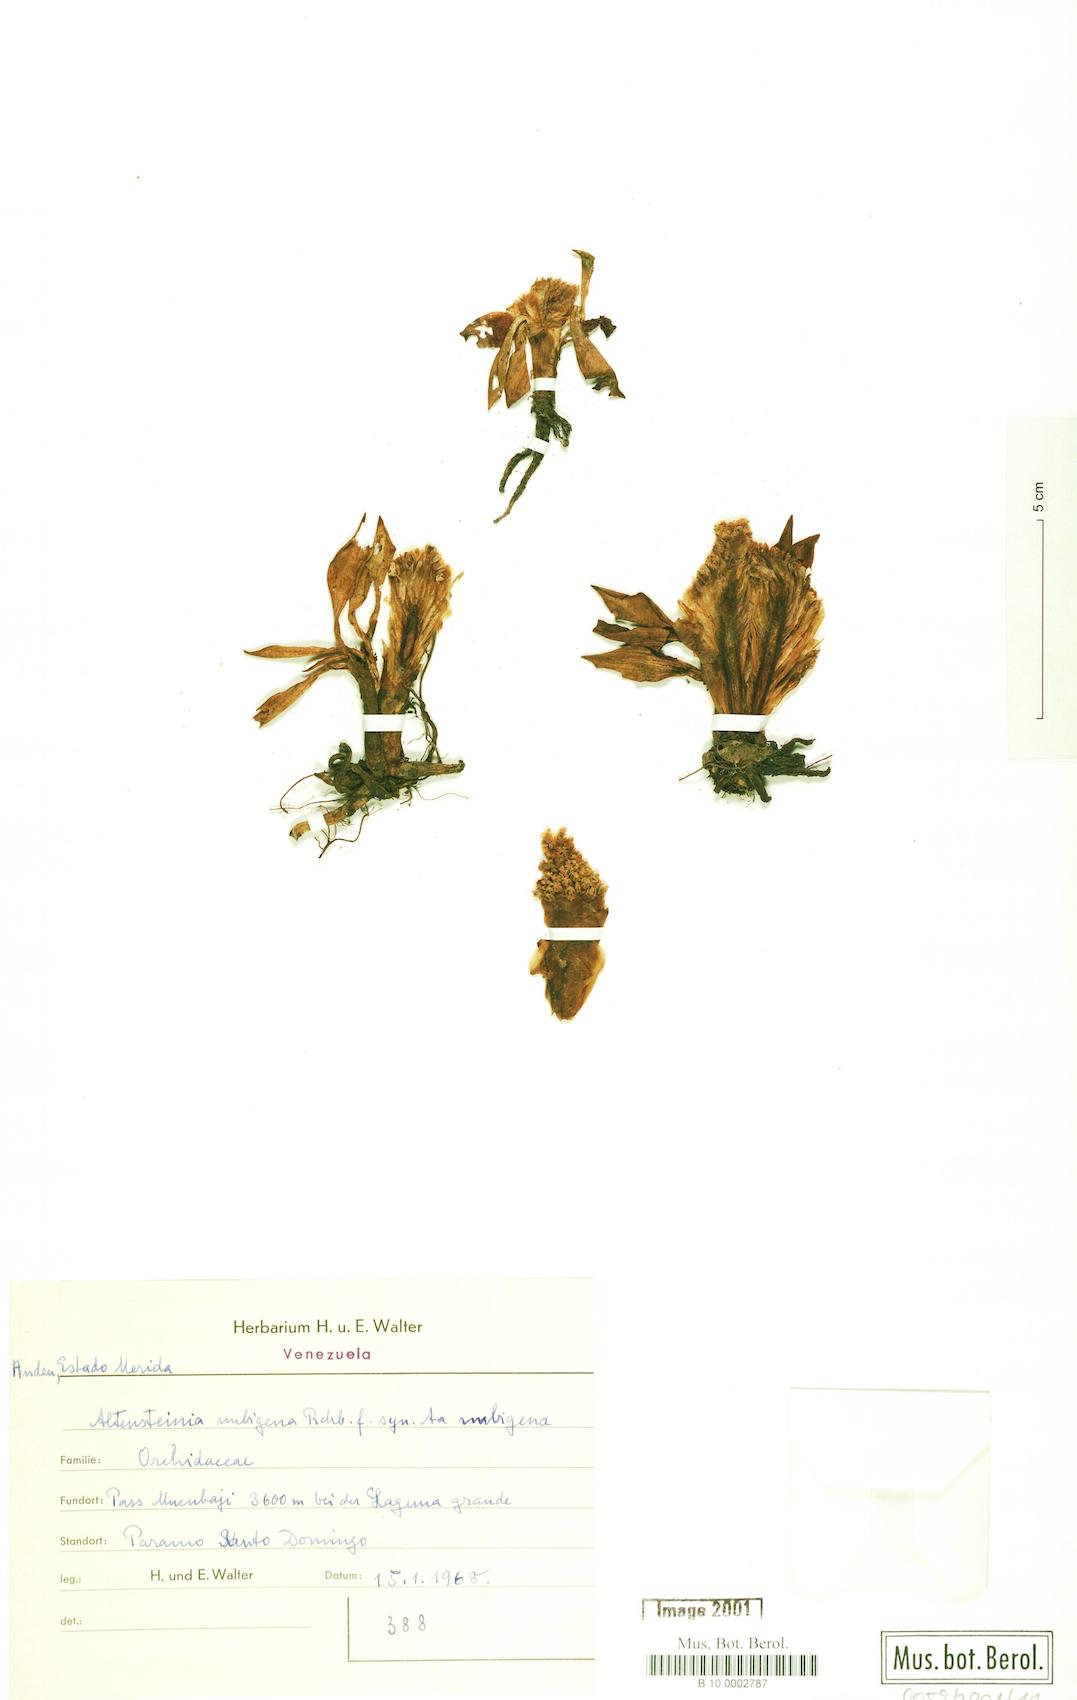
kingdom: Plantae
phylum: Tracheophyta
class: Liliopsida
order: Asparagales
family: Orchidaceae
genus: Myrosmodes
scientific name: Myrosmodes cochleare
